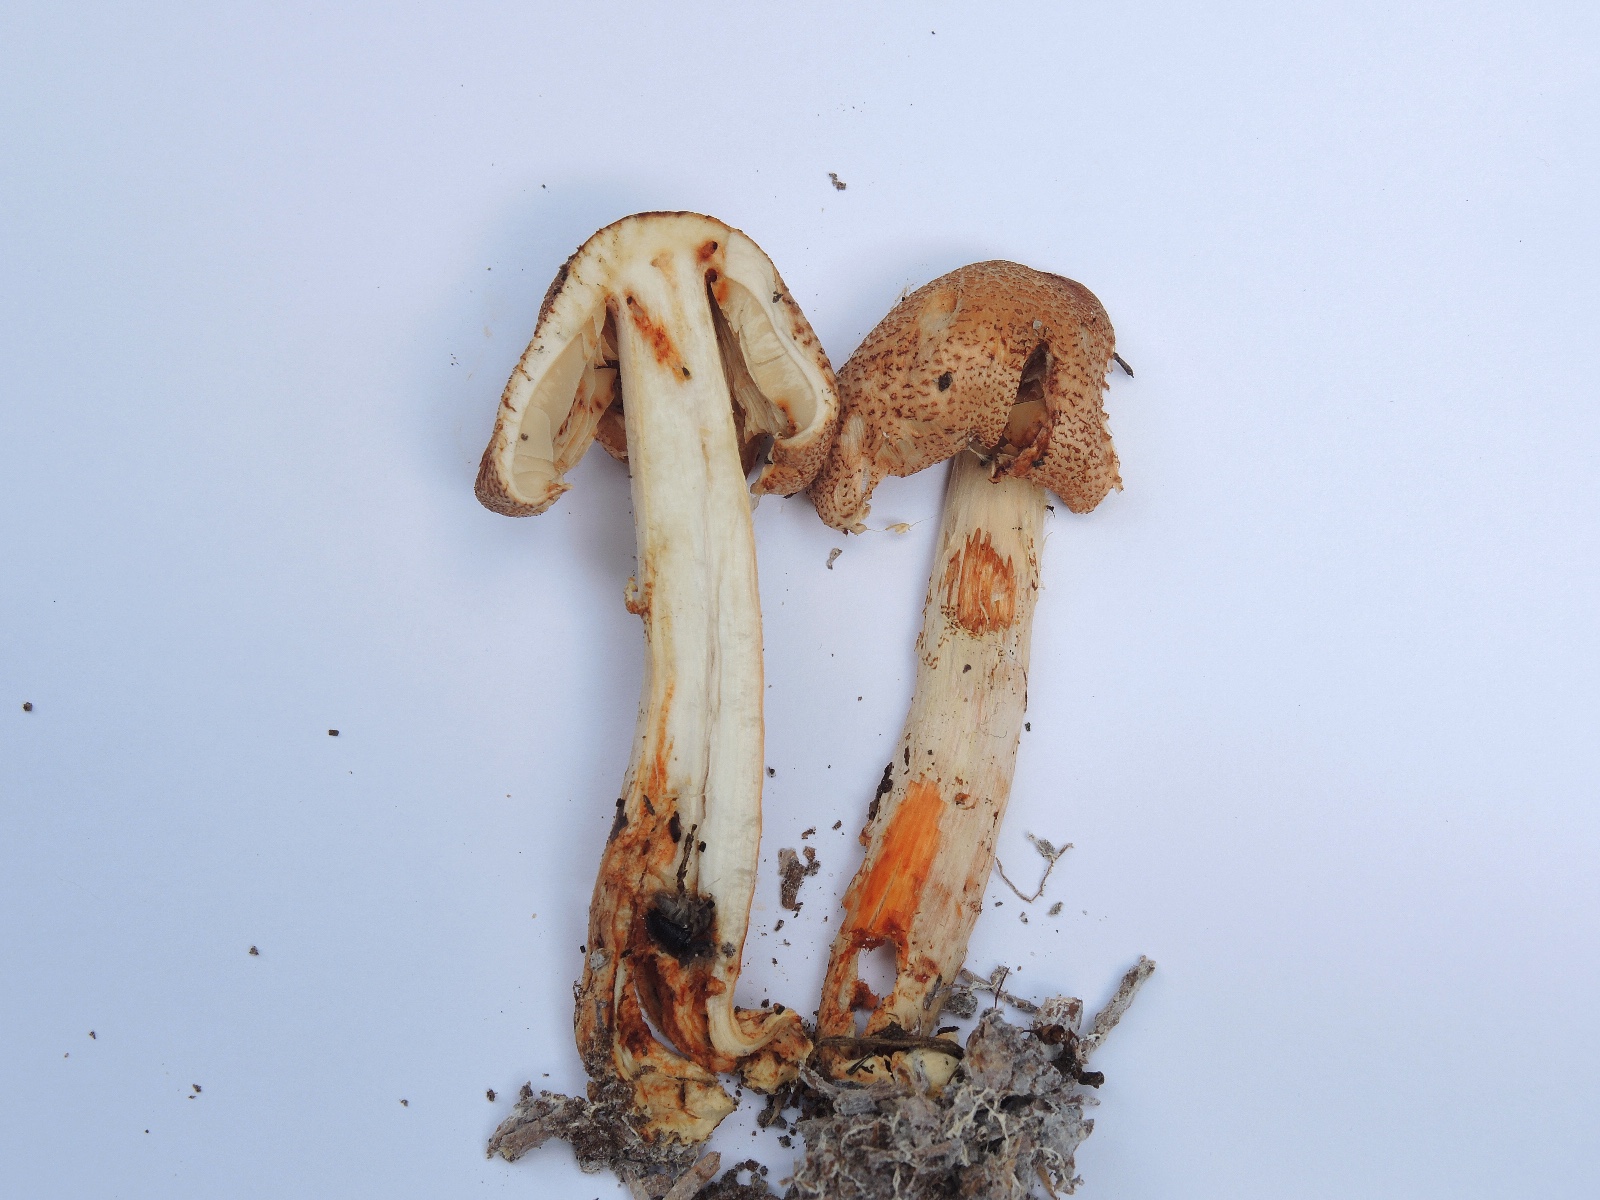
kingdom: Fungi
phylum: Basidiomycota
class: Agaricomycetes
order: Agaricales
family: Agaricaceae
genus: Lepiota
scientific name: Lepiota ochraceofulva
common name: sødtduftende parasolhat
